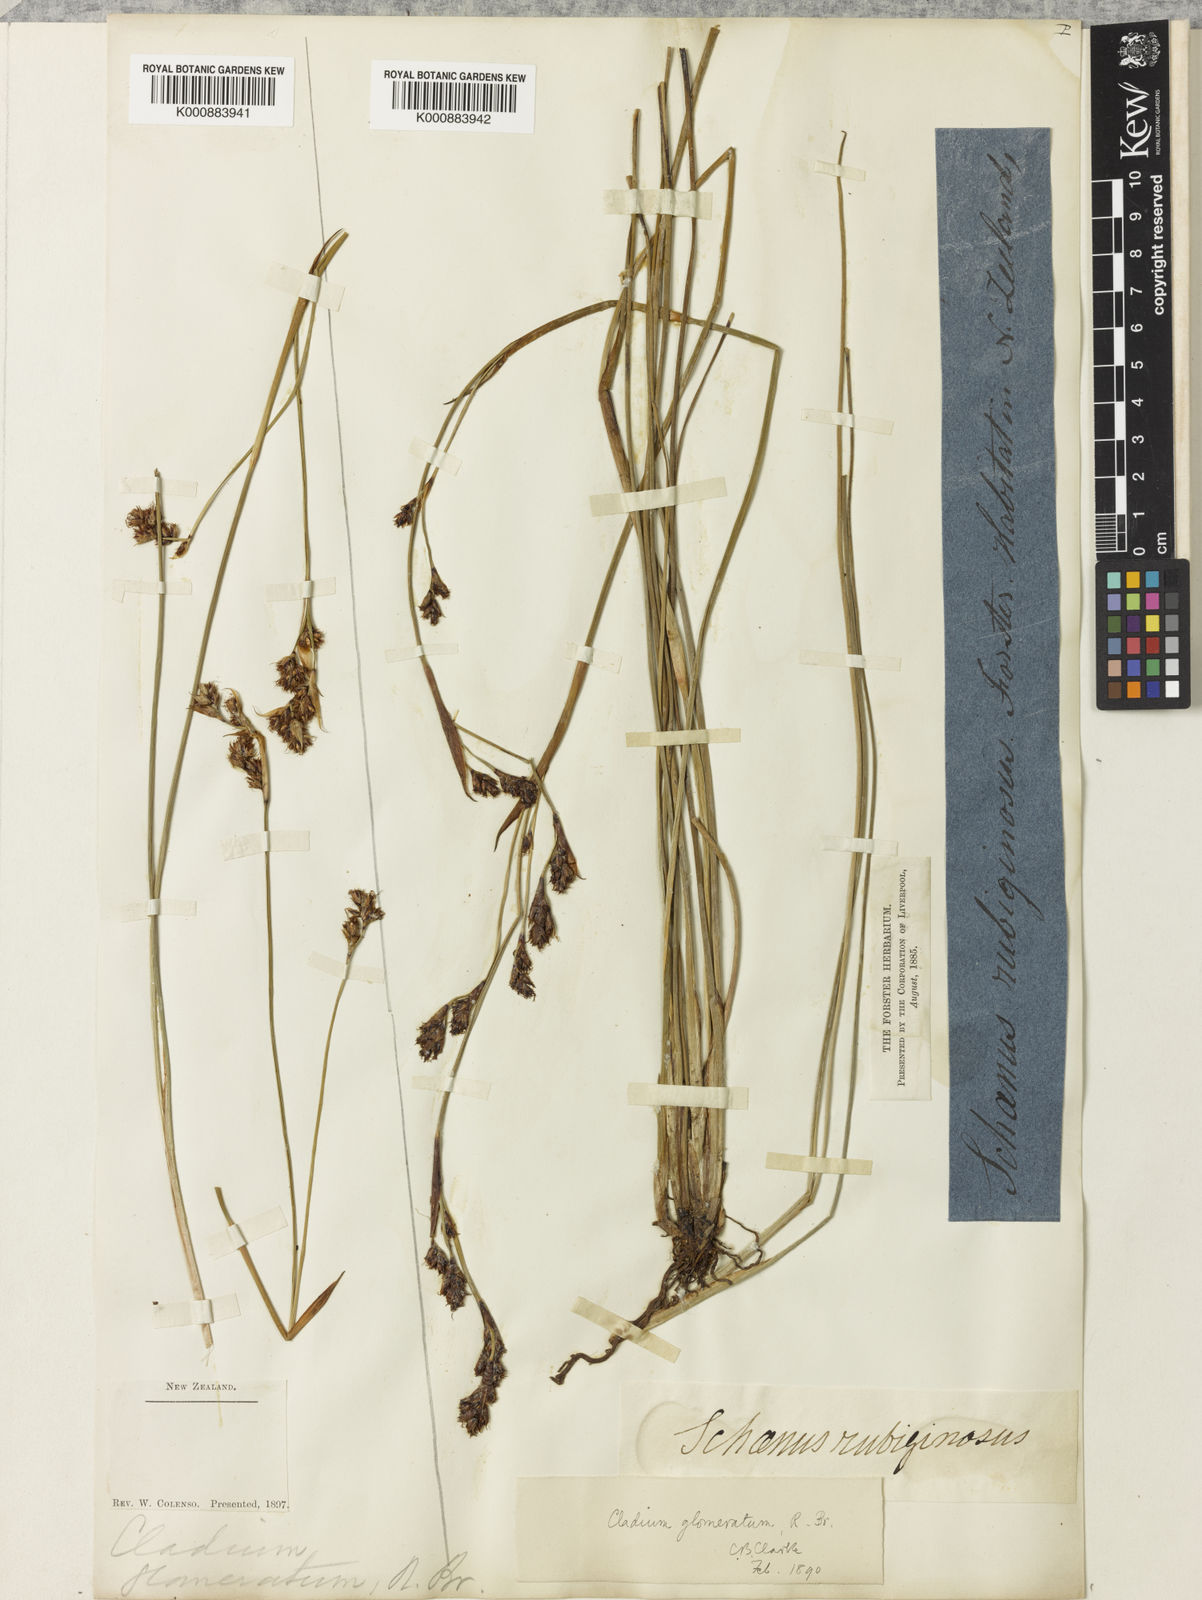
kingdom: Plantae
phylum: Tracheophyta
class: Liliopsida
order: Poales
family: Cyperaceae
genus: Machaerina
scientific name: Machaerina rubiginosa
